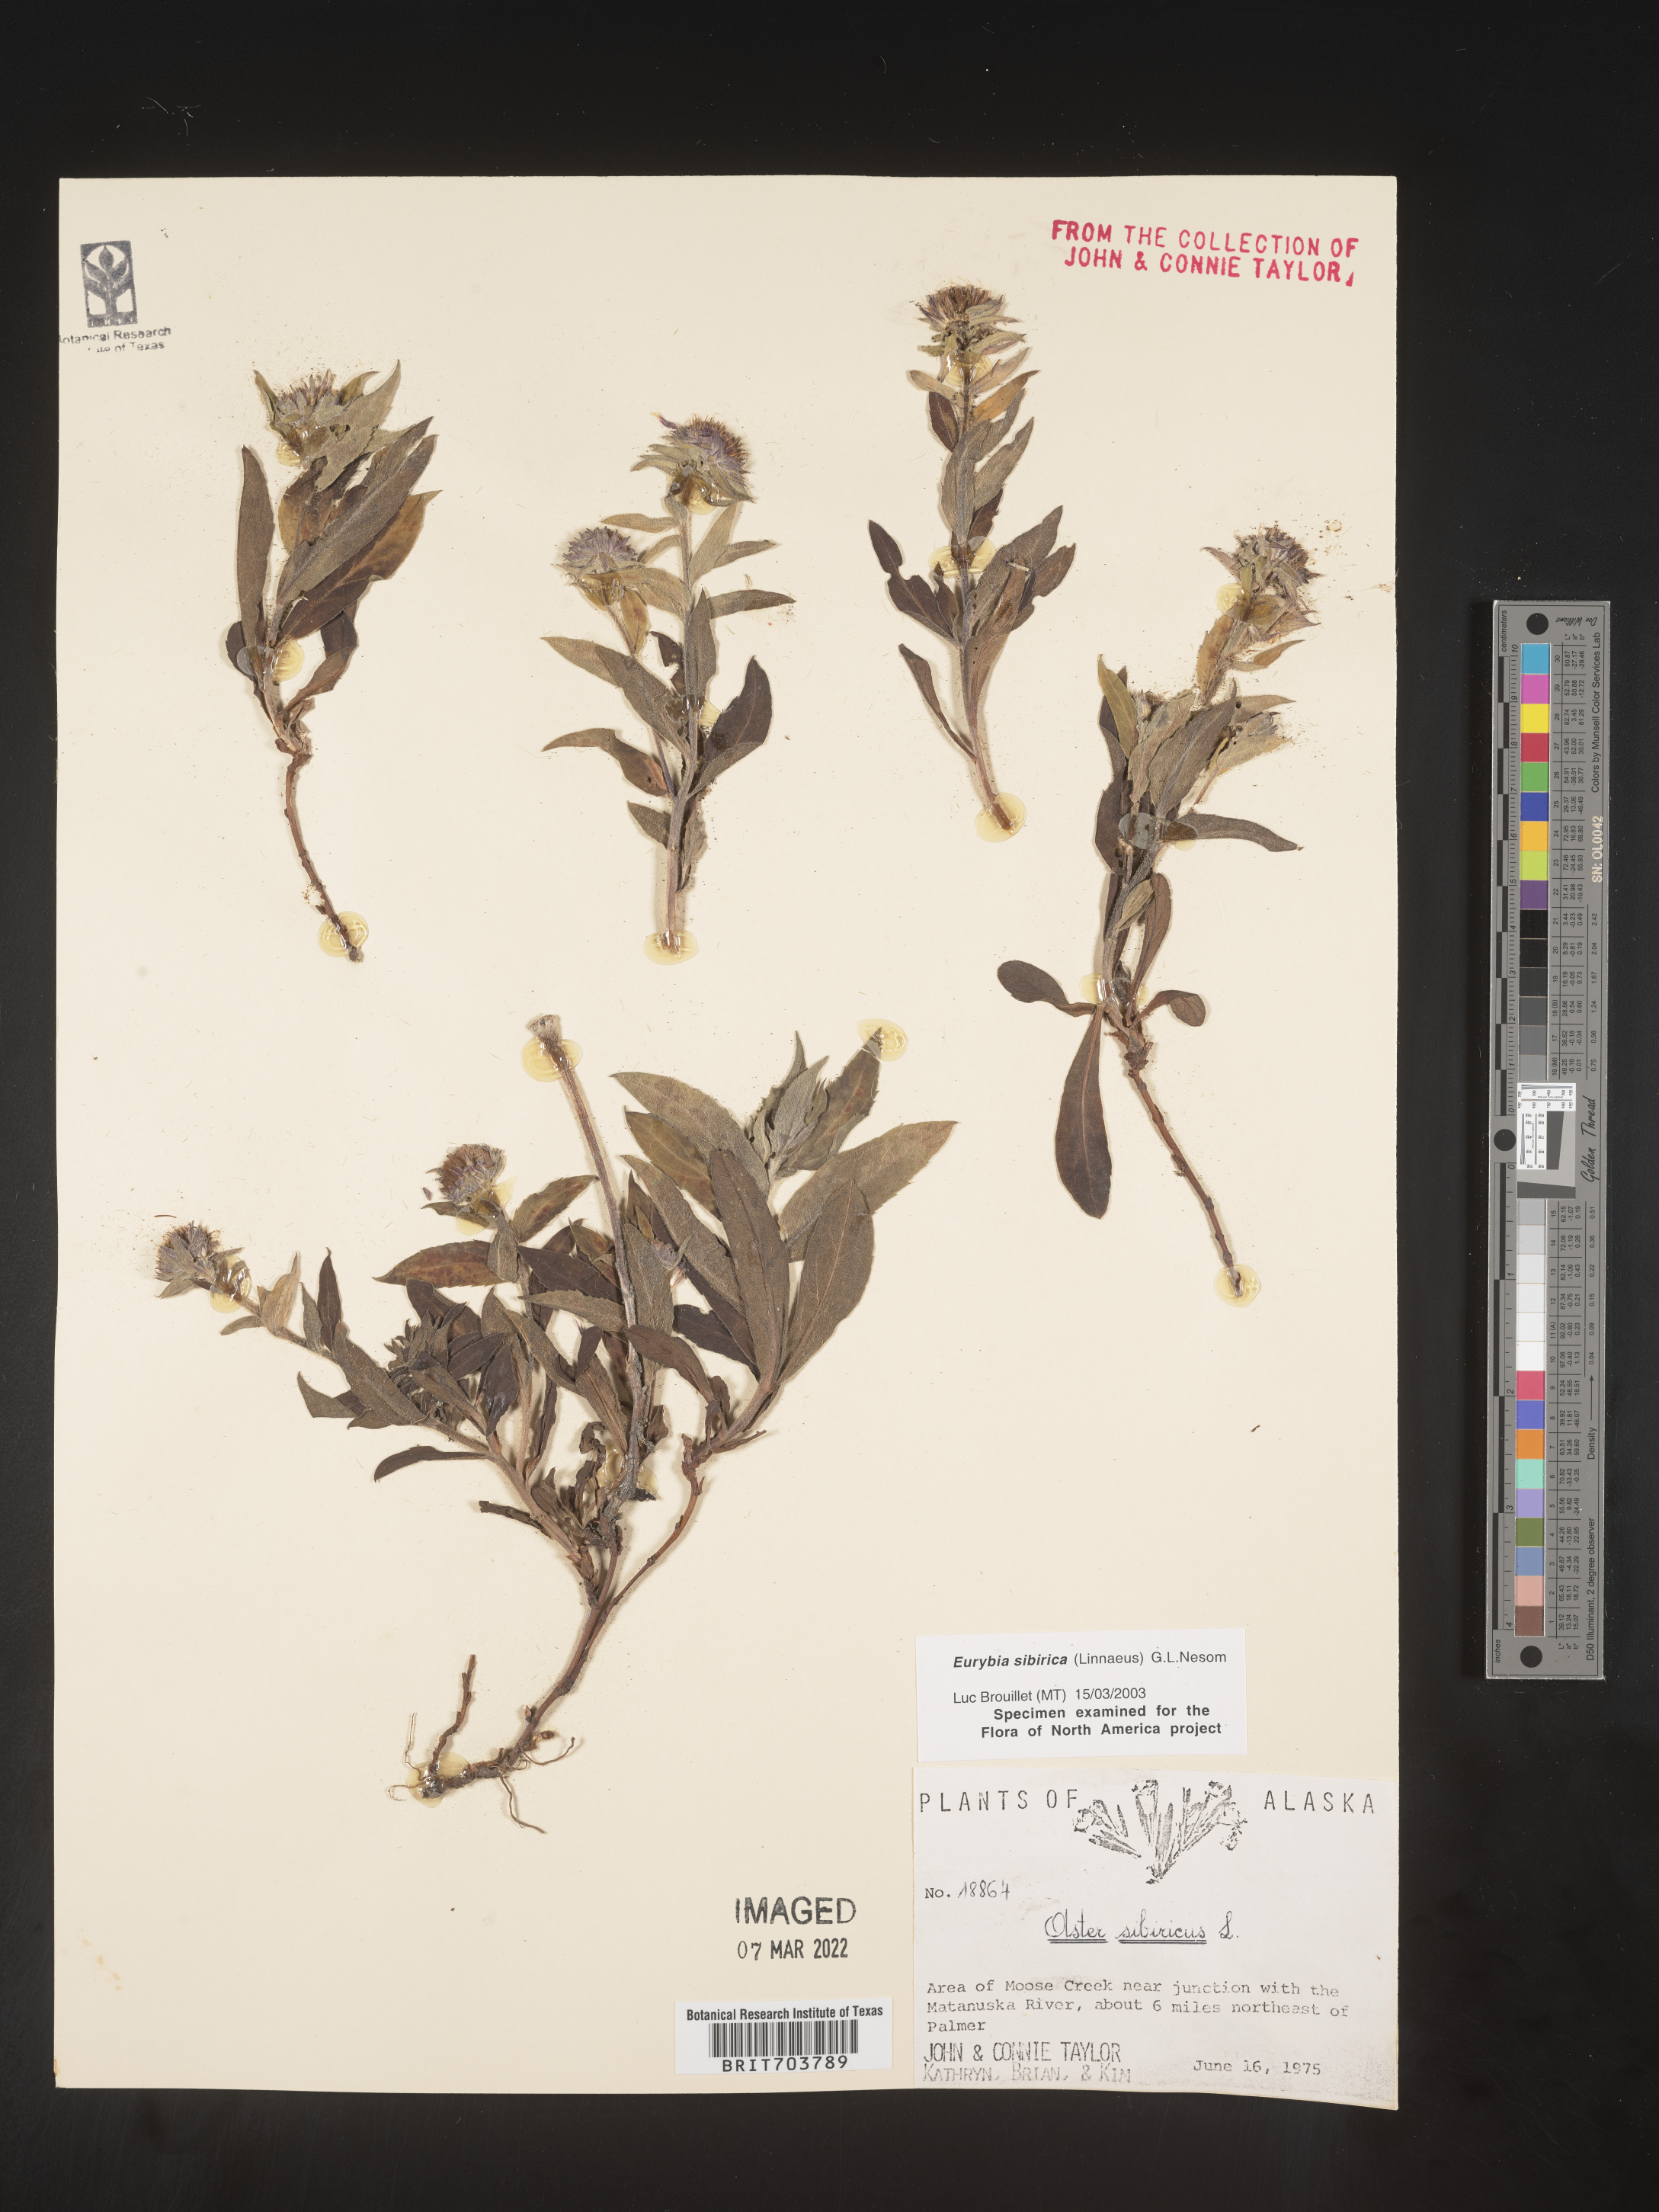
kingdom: Plantae
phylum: Tracheophyta
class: Magnoliopsida
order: Asterales
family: Asteraceae
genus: Eurybia
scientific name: Eurybia sibirica
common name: Arctic aster
